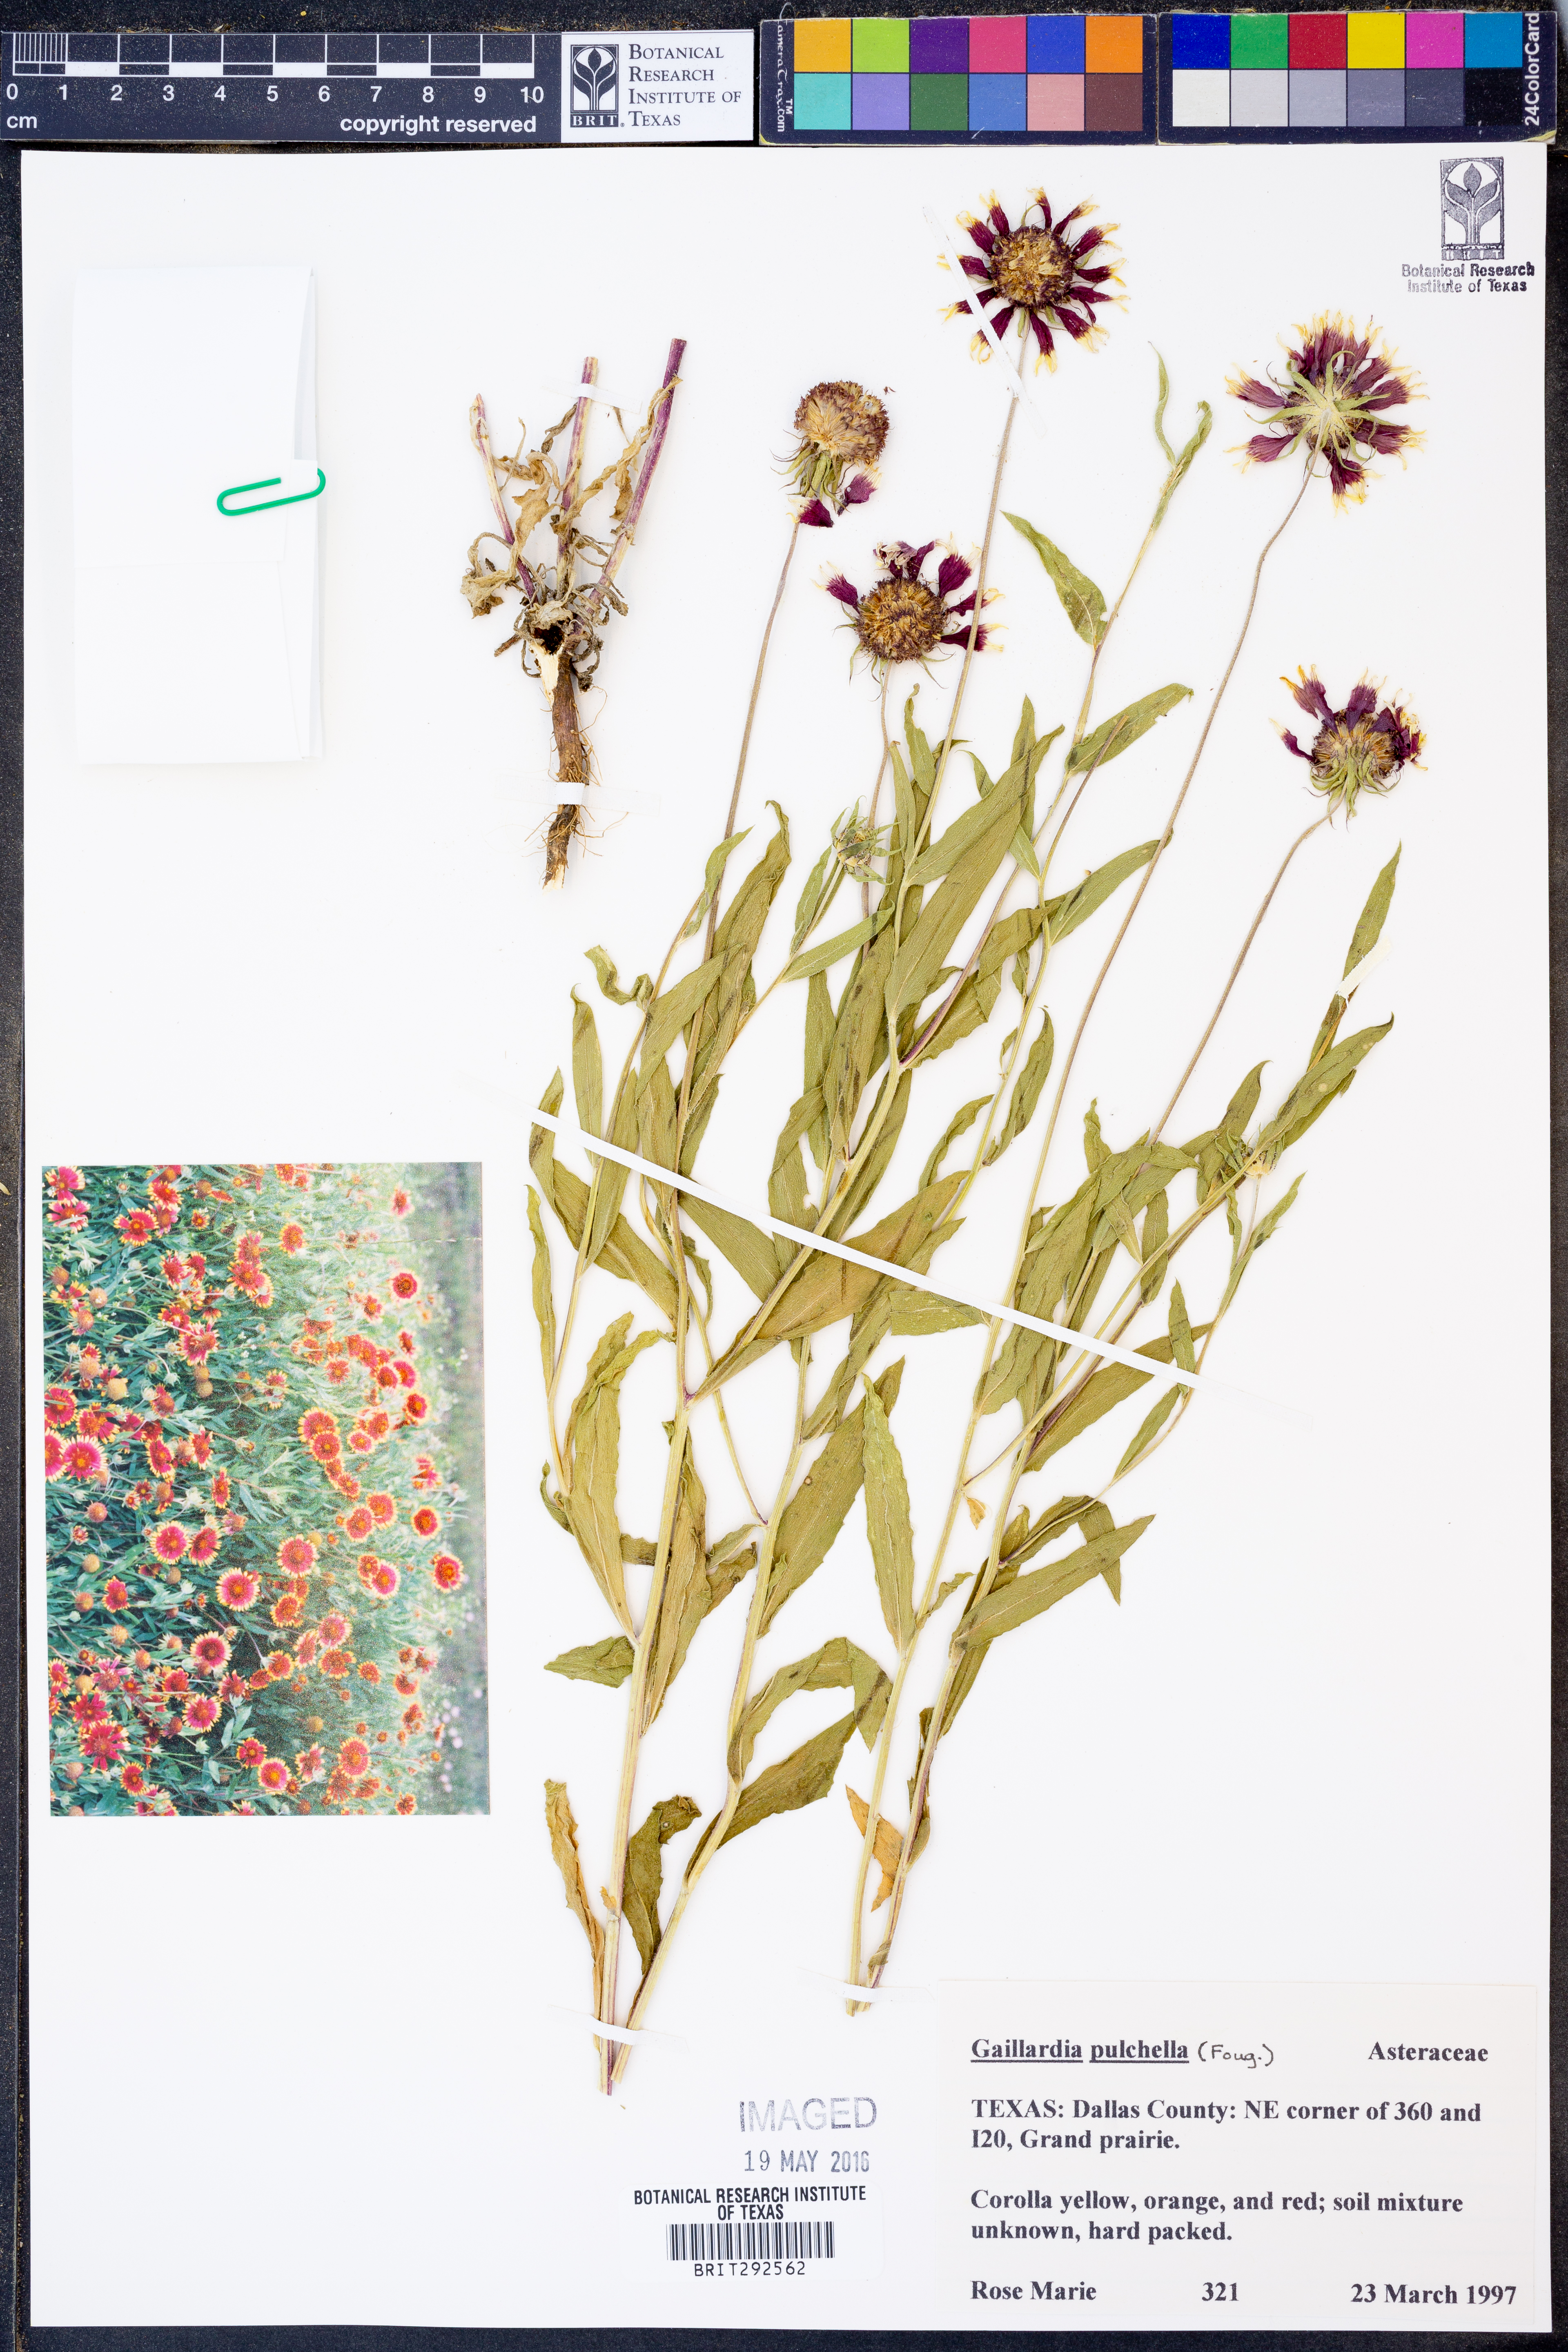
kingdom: Plantae
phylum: Tracheophyta
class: Magnoliopsida
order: Asterales
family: Asteraceae
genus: Gaillardia
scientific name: Gaillardia pulchella
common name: Firewheel
